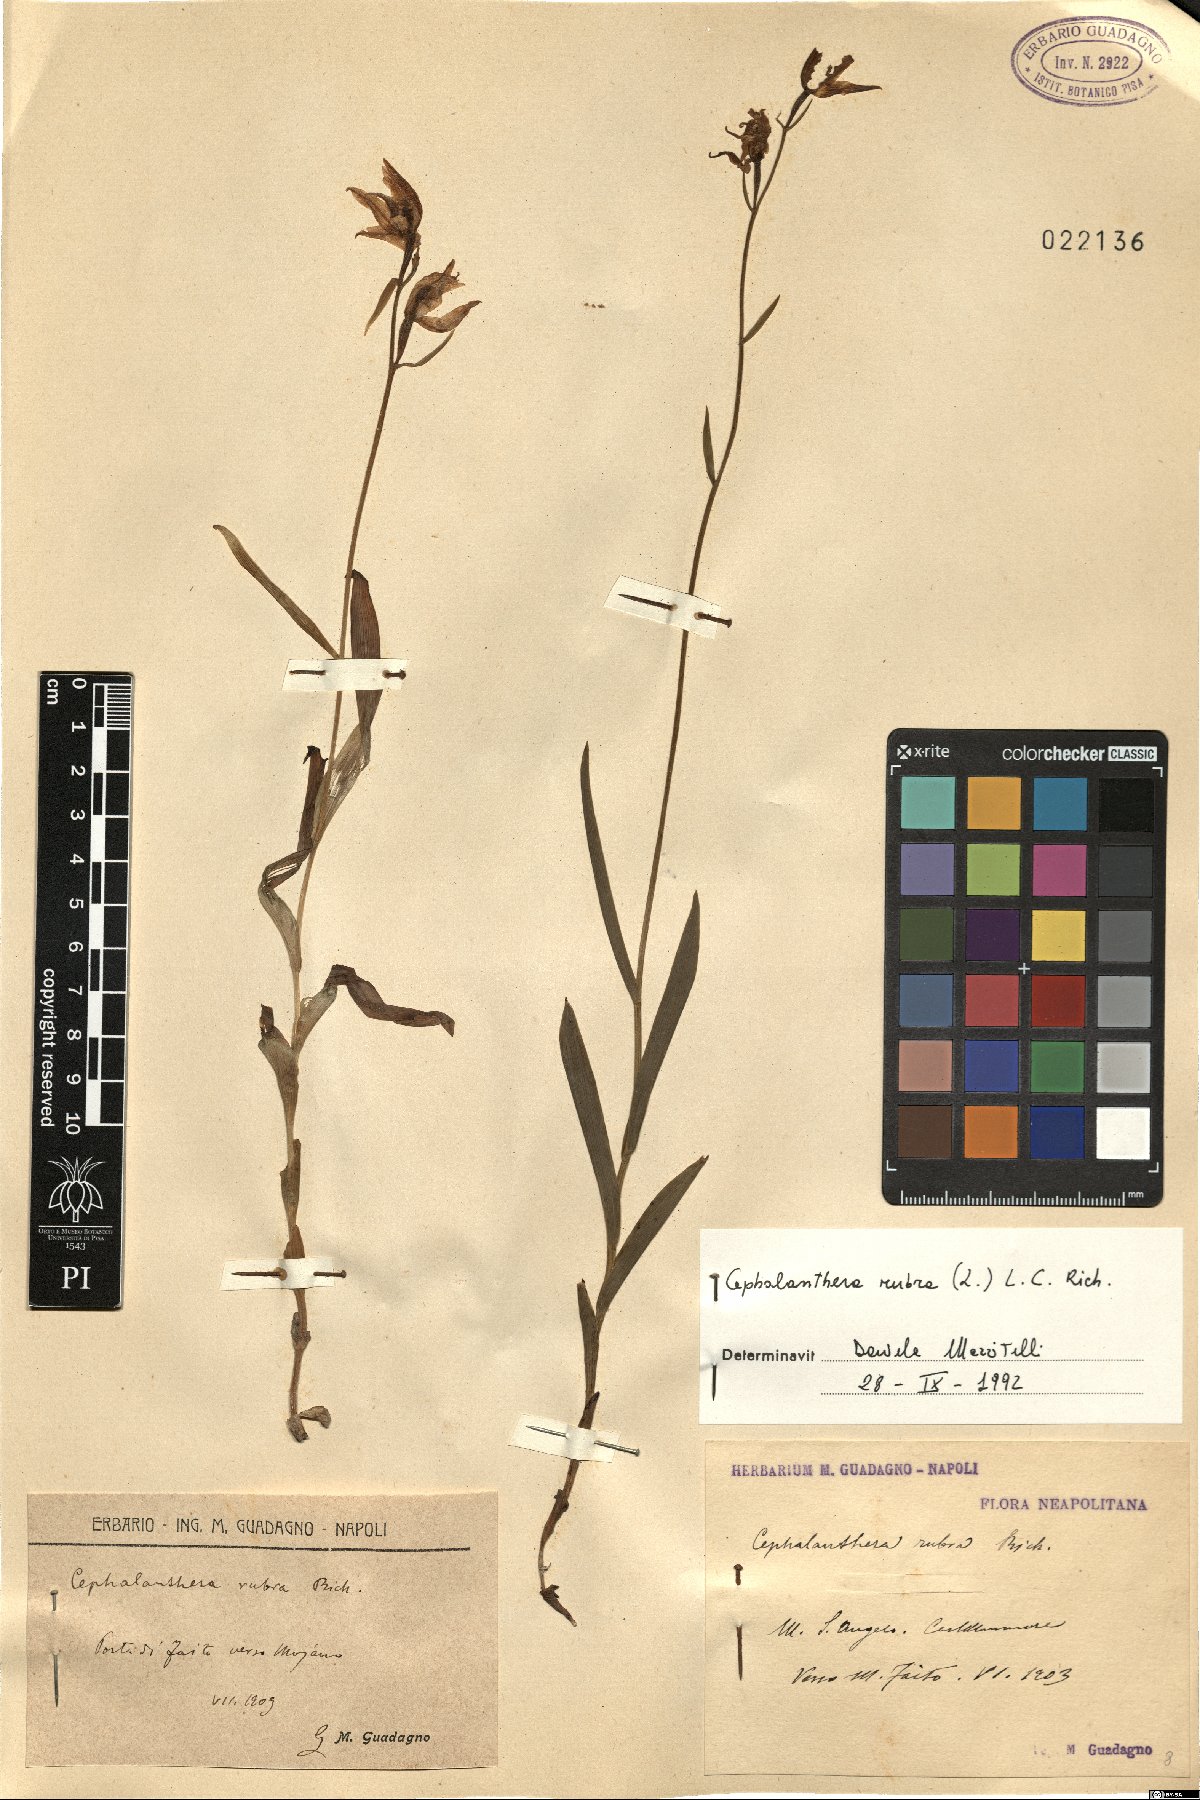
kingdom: Plantae
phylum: Tracheophyta
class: Liliopsida
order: Asparagales
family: Orchidaceae
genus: Cephalanthera
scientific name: Cephalanthera rubra
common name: Red helleborine
